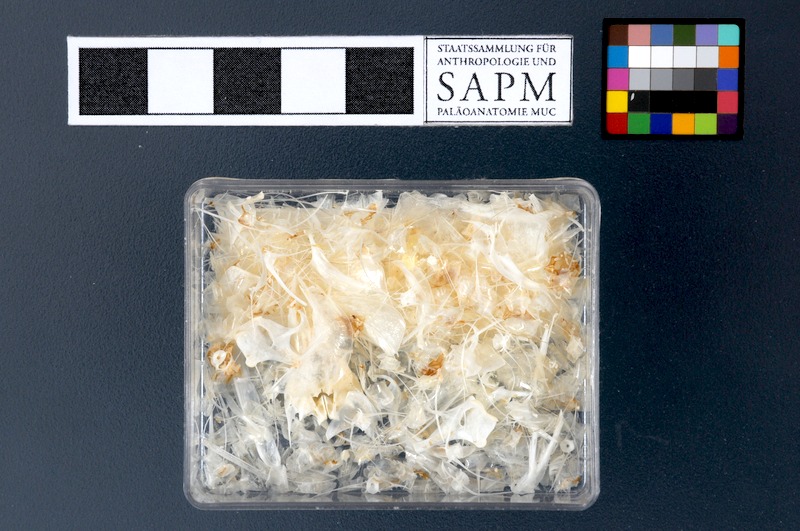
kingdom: Animalia
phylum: Chordata
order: Clupeiformes
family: Clupeidae
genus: Sardinella
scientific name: Sardinella longiceps
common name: Indian oil sardine
